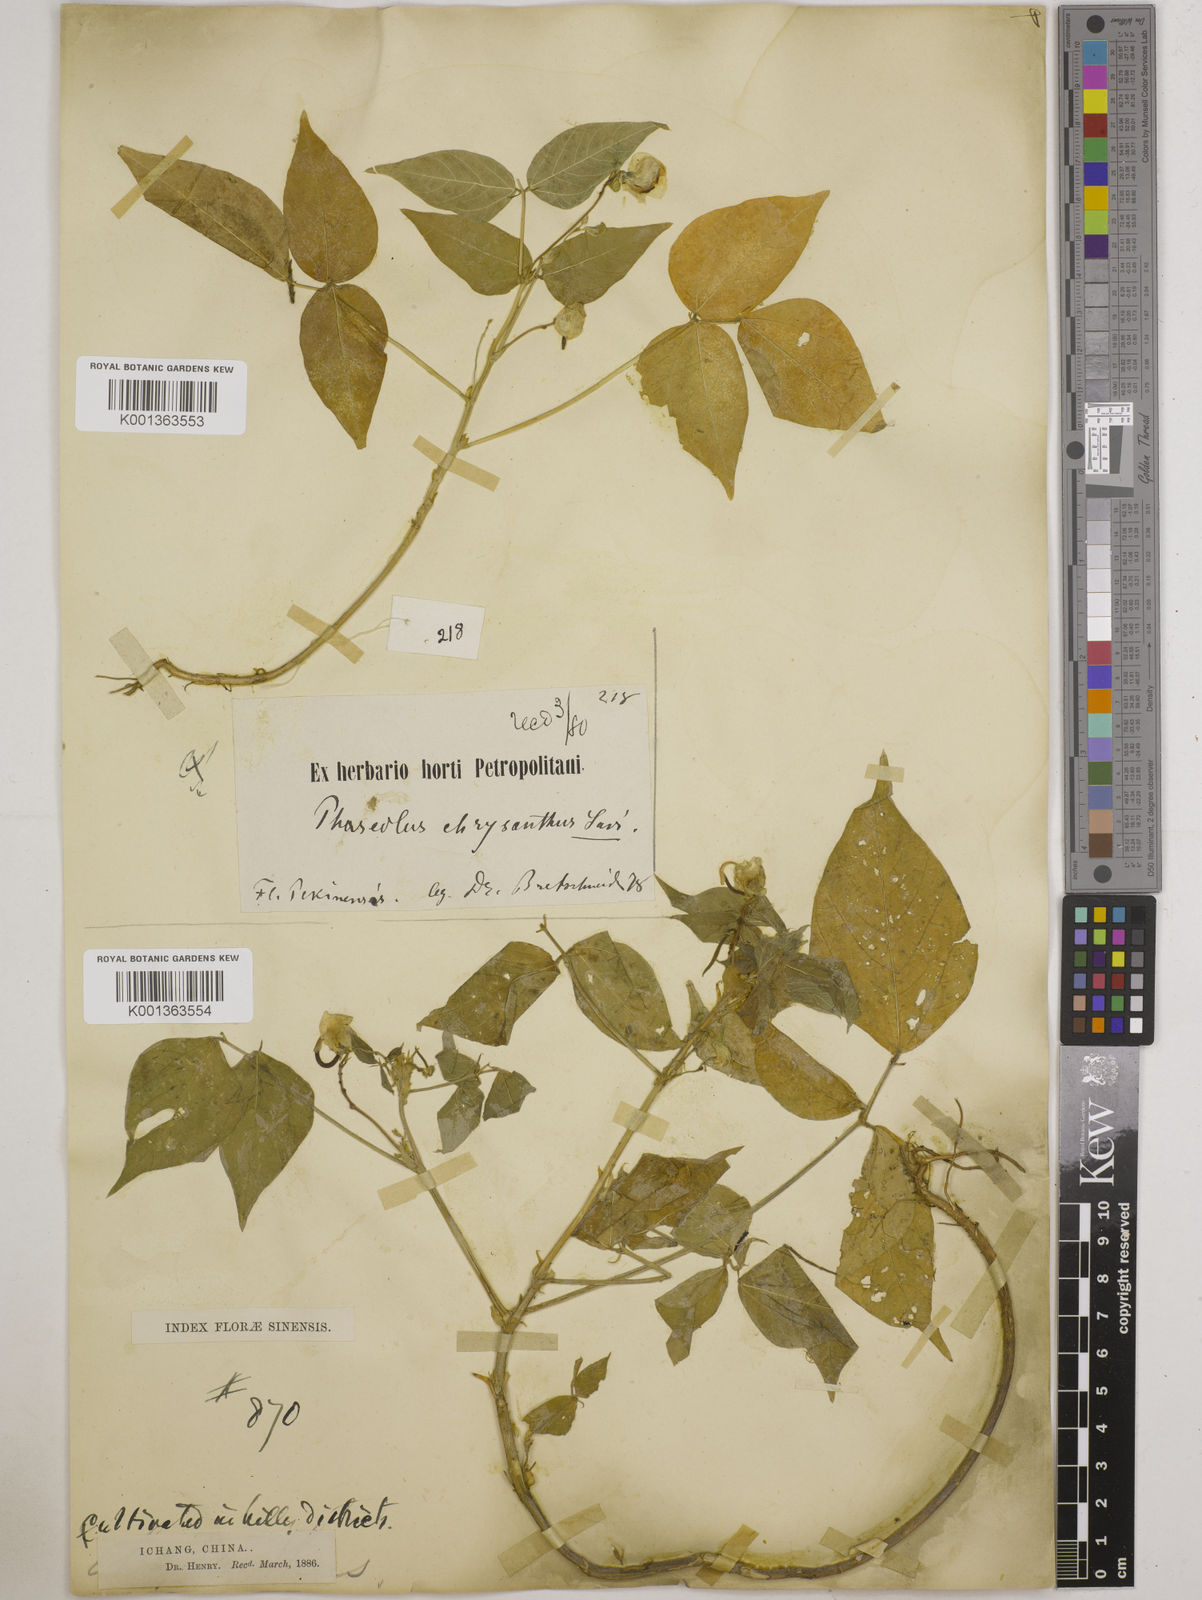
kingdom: Plantae
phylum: Tracheophyta
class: Magnoliopsida
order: Fabales
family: Fabaceae
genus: Vigna
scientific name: Vigna umbellata
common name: Oriental-bean
